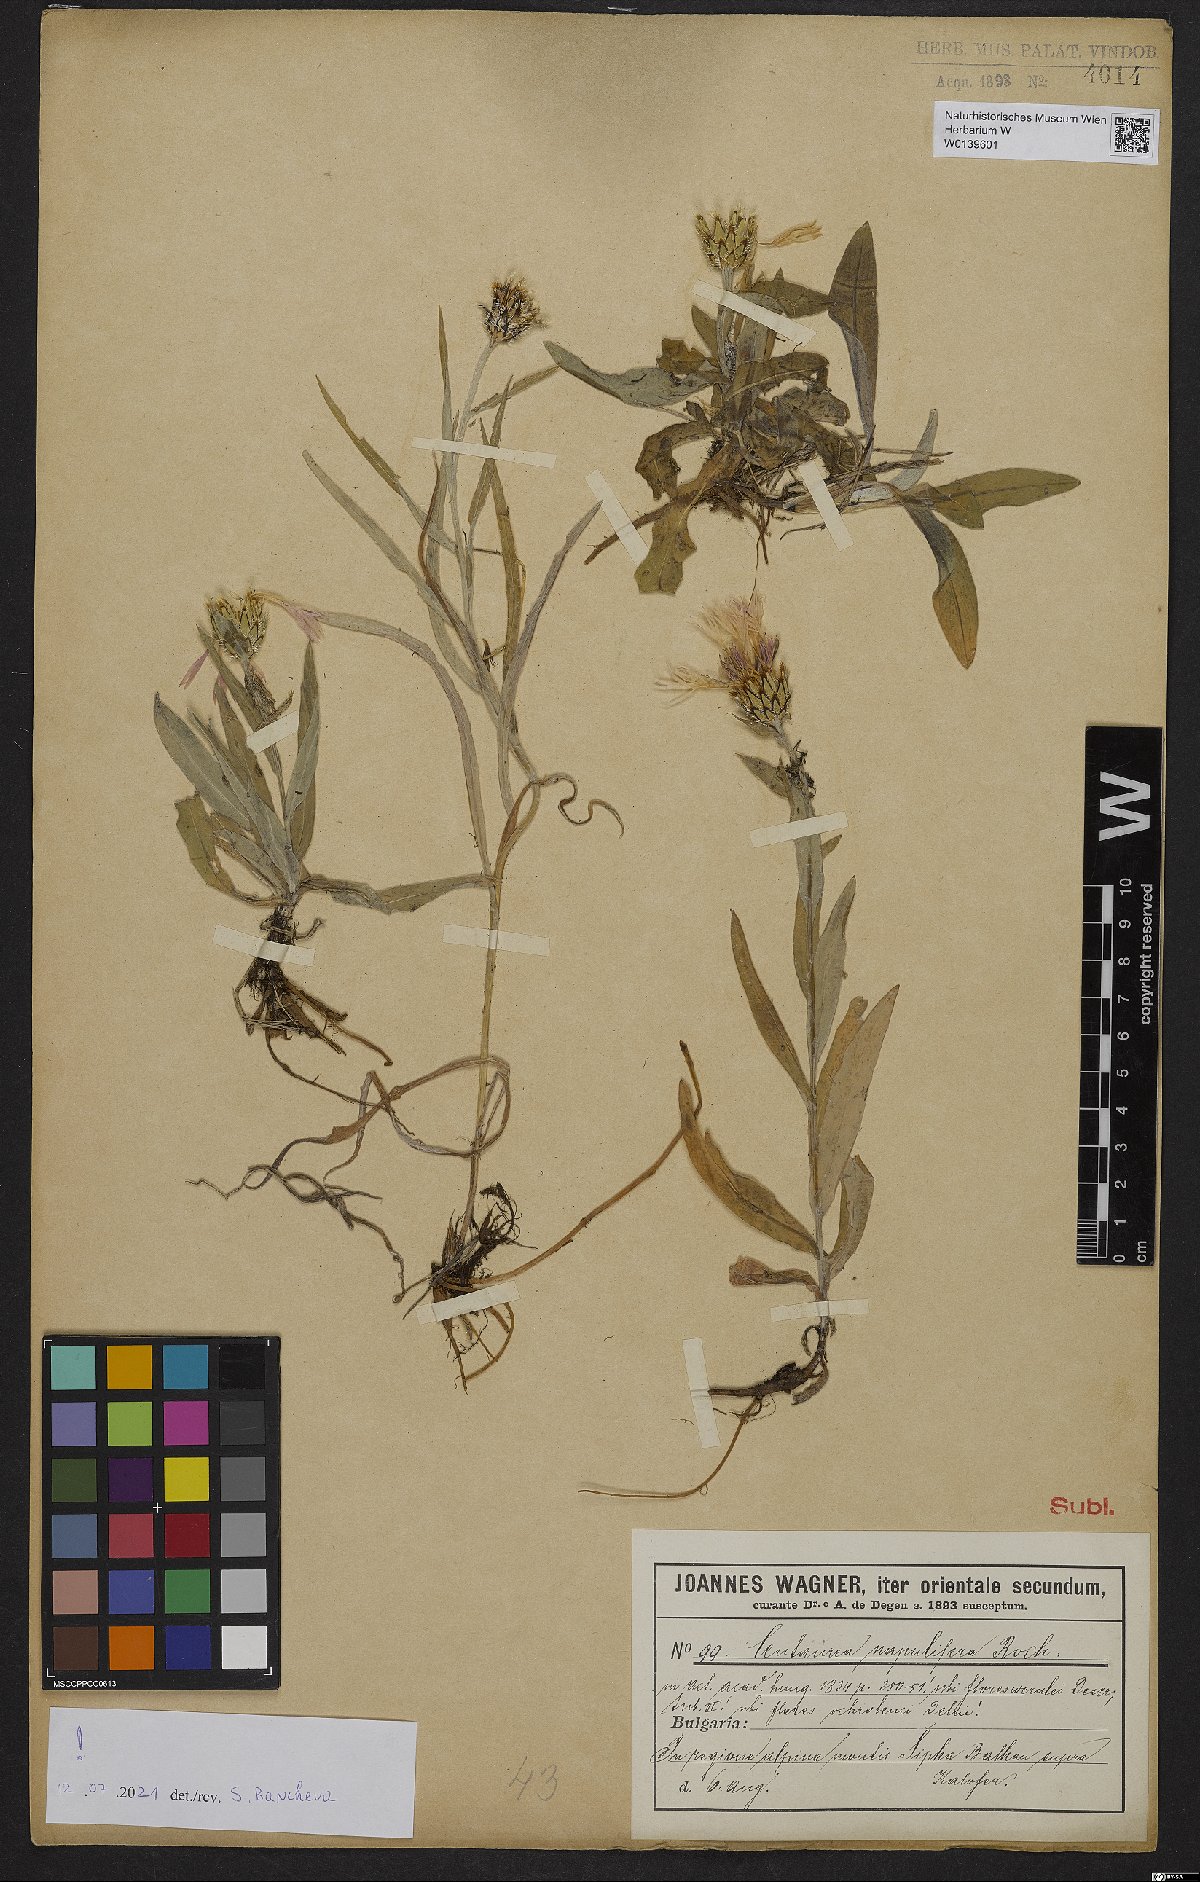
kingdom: Plantae
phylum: Tracheophyta
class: Magnoliopsida
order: Asterales
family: Asteraceae
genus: Centaurea
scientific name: Centaurea napulifera
